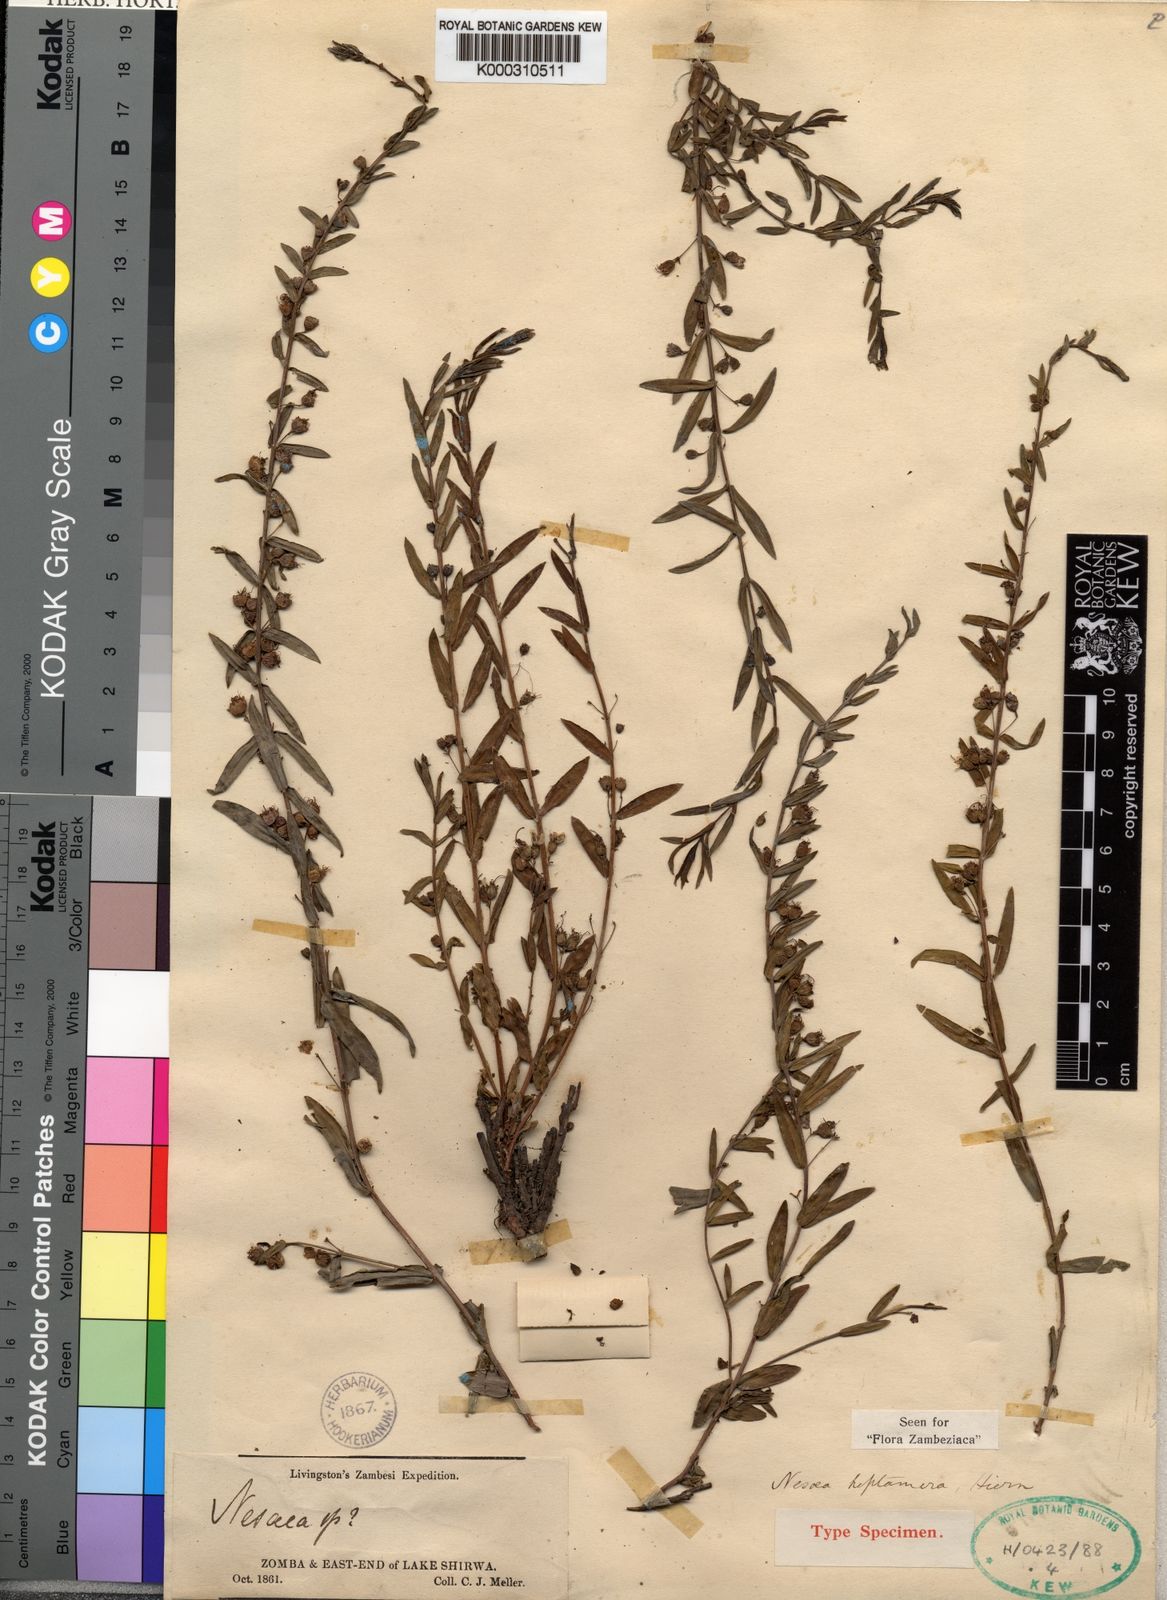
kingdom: Plantae
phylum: Tracheophyta
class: Magnoliopsida
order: Myrtales
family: Lythraceae
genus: Ammannia
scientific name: Ammannia heptamera
